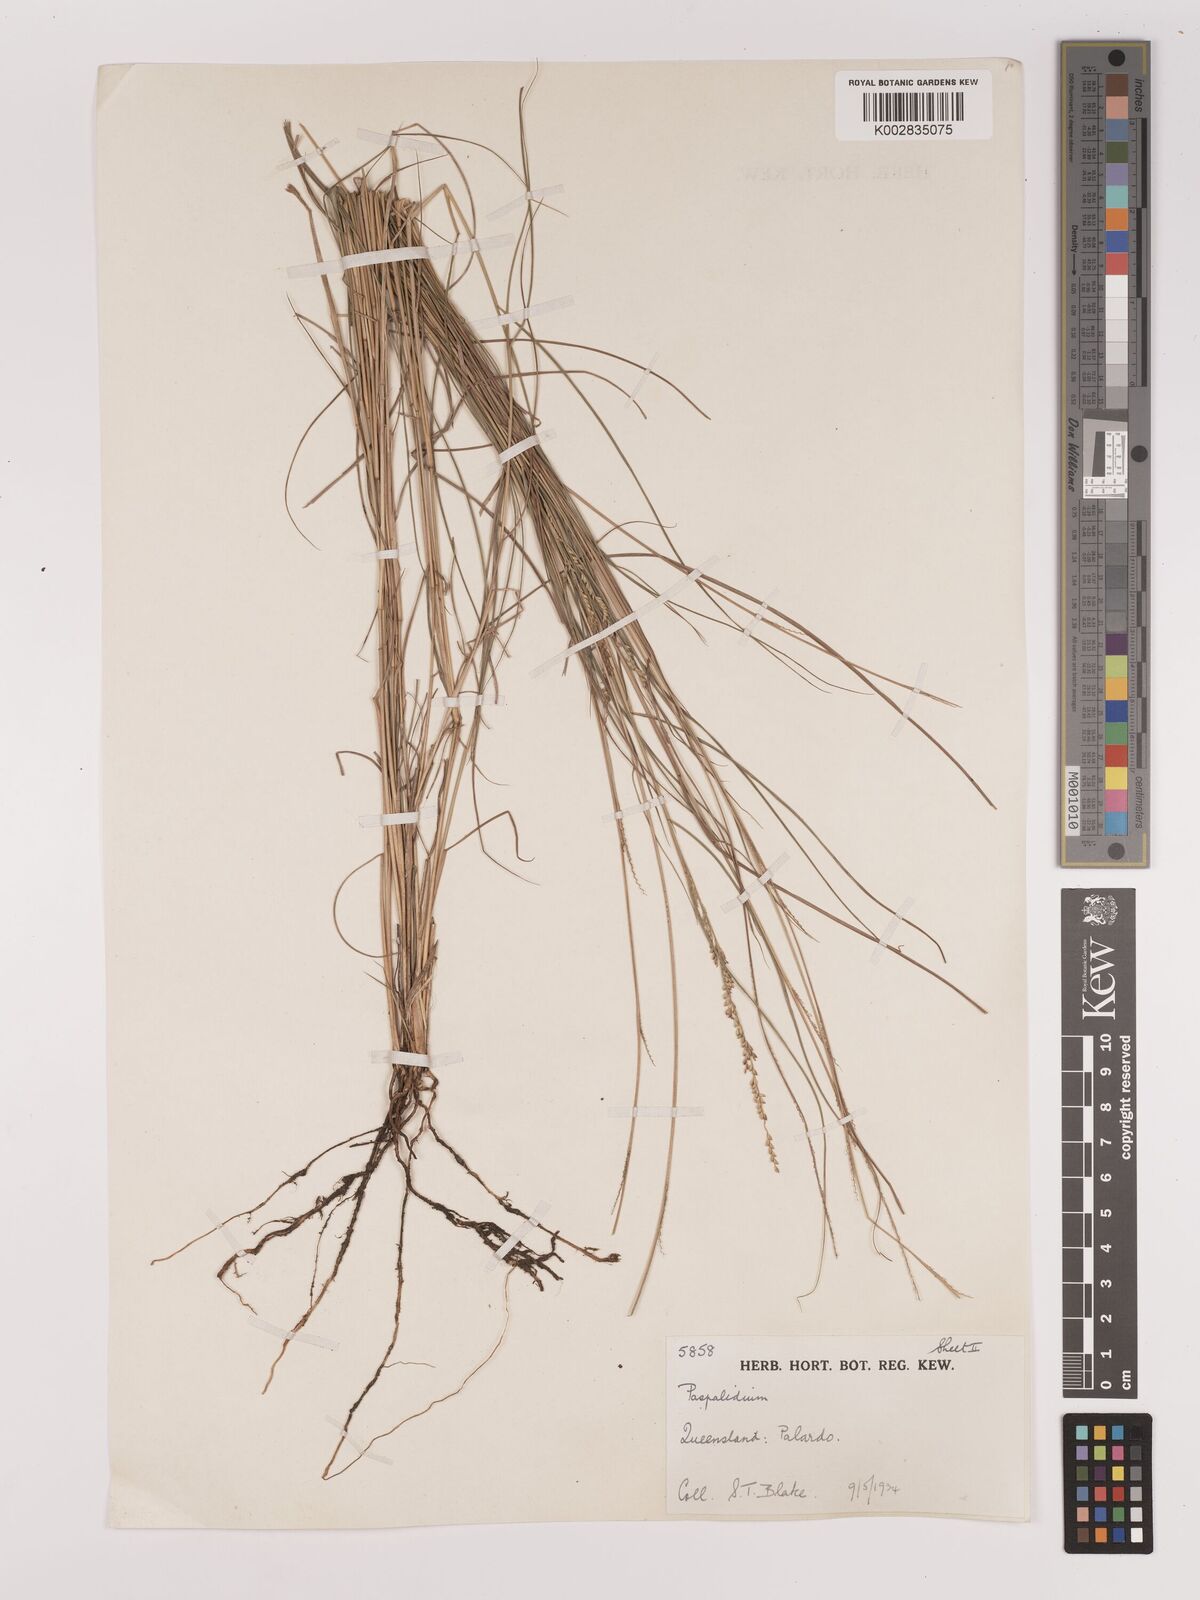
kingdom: Plantae
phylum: Tracheophyta
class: Liliopsida
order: Poales
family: Poaceae
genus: Setaria
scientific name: Setaria
